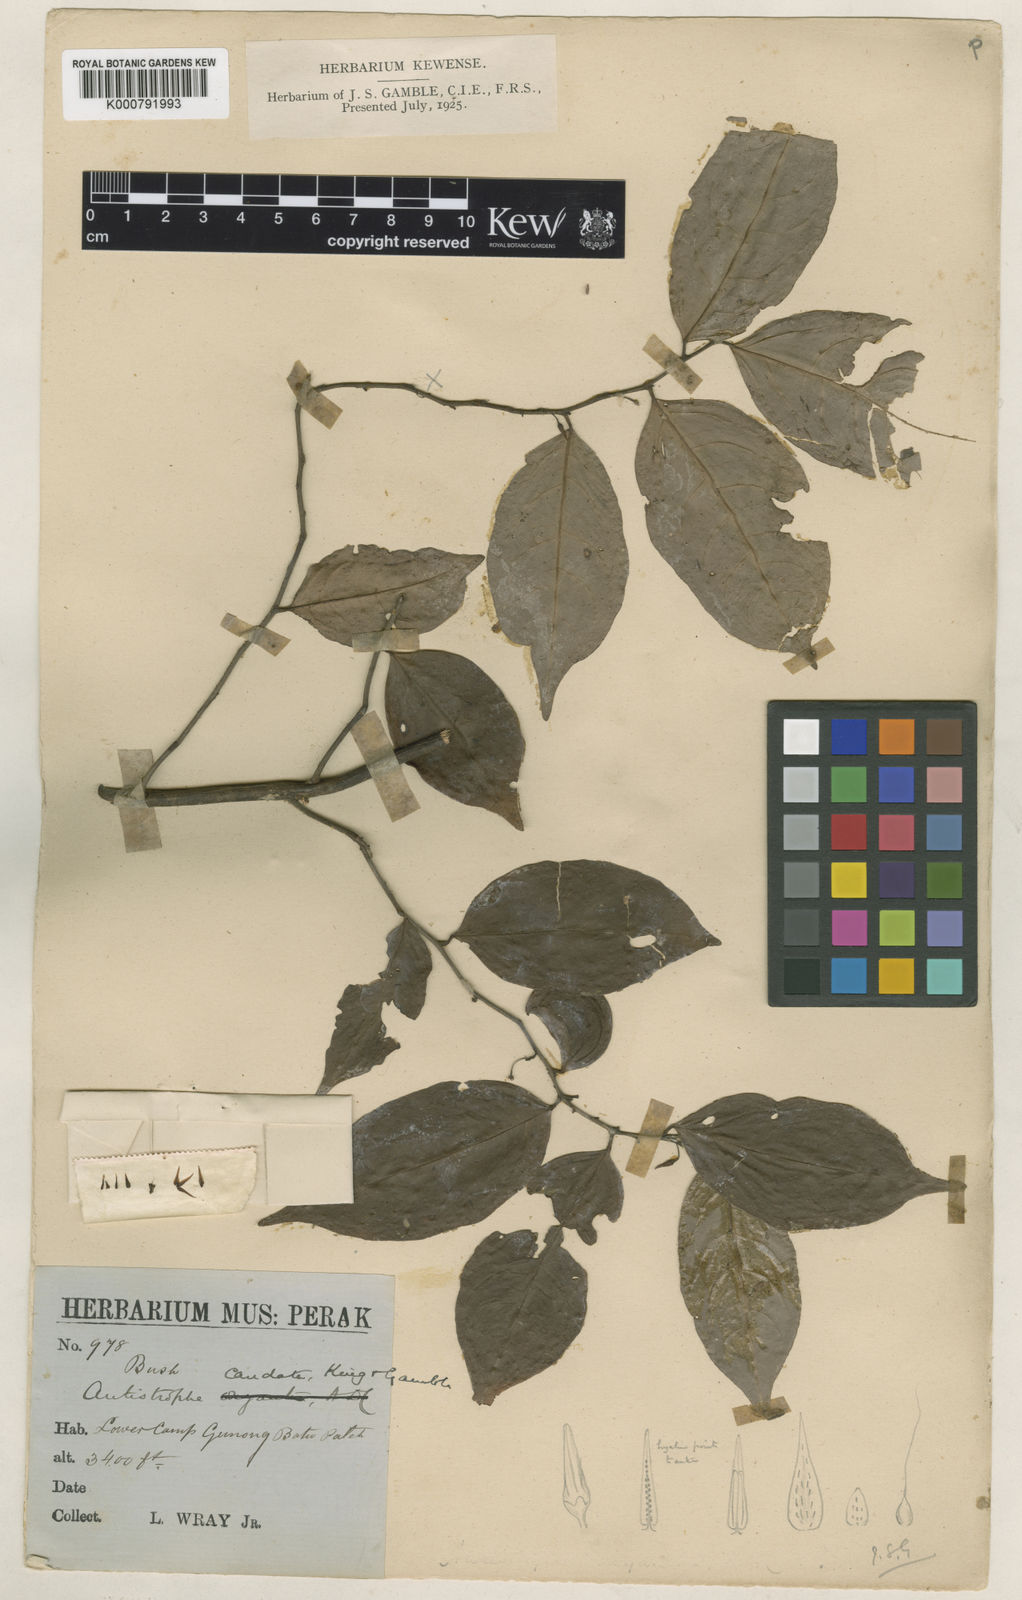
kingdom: Plantae
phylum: Tracheophyta
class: Magnoliopsida
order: Ericales
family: Primulaceae
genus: Antistrophe
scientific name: Antistrophe solanoides
